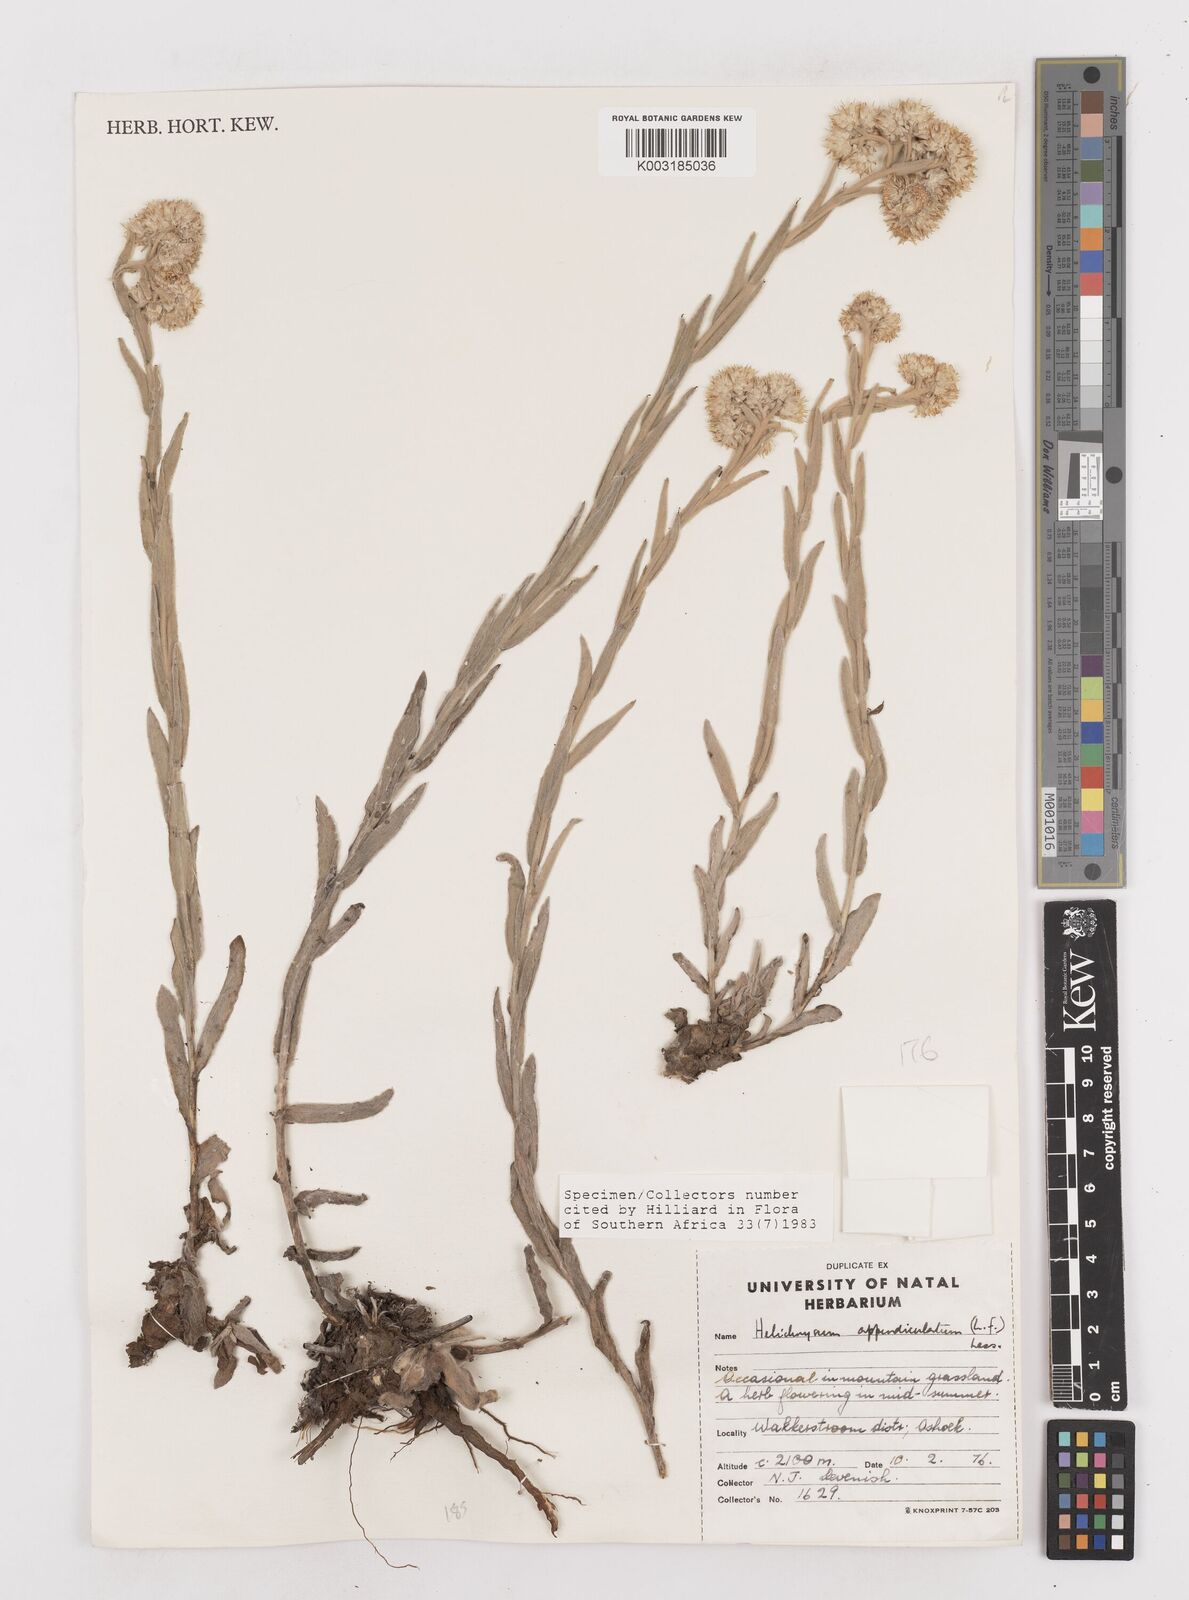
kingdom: Plantae
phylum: Tracheophyta
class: Magnoliopsida
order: Asterales
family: Asteraceae
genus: Helichrysum
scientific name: Helichrysum appendiculatum
